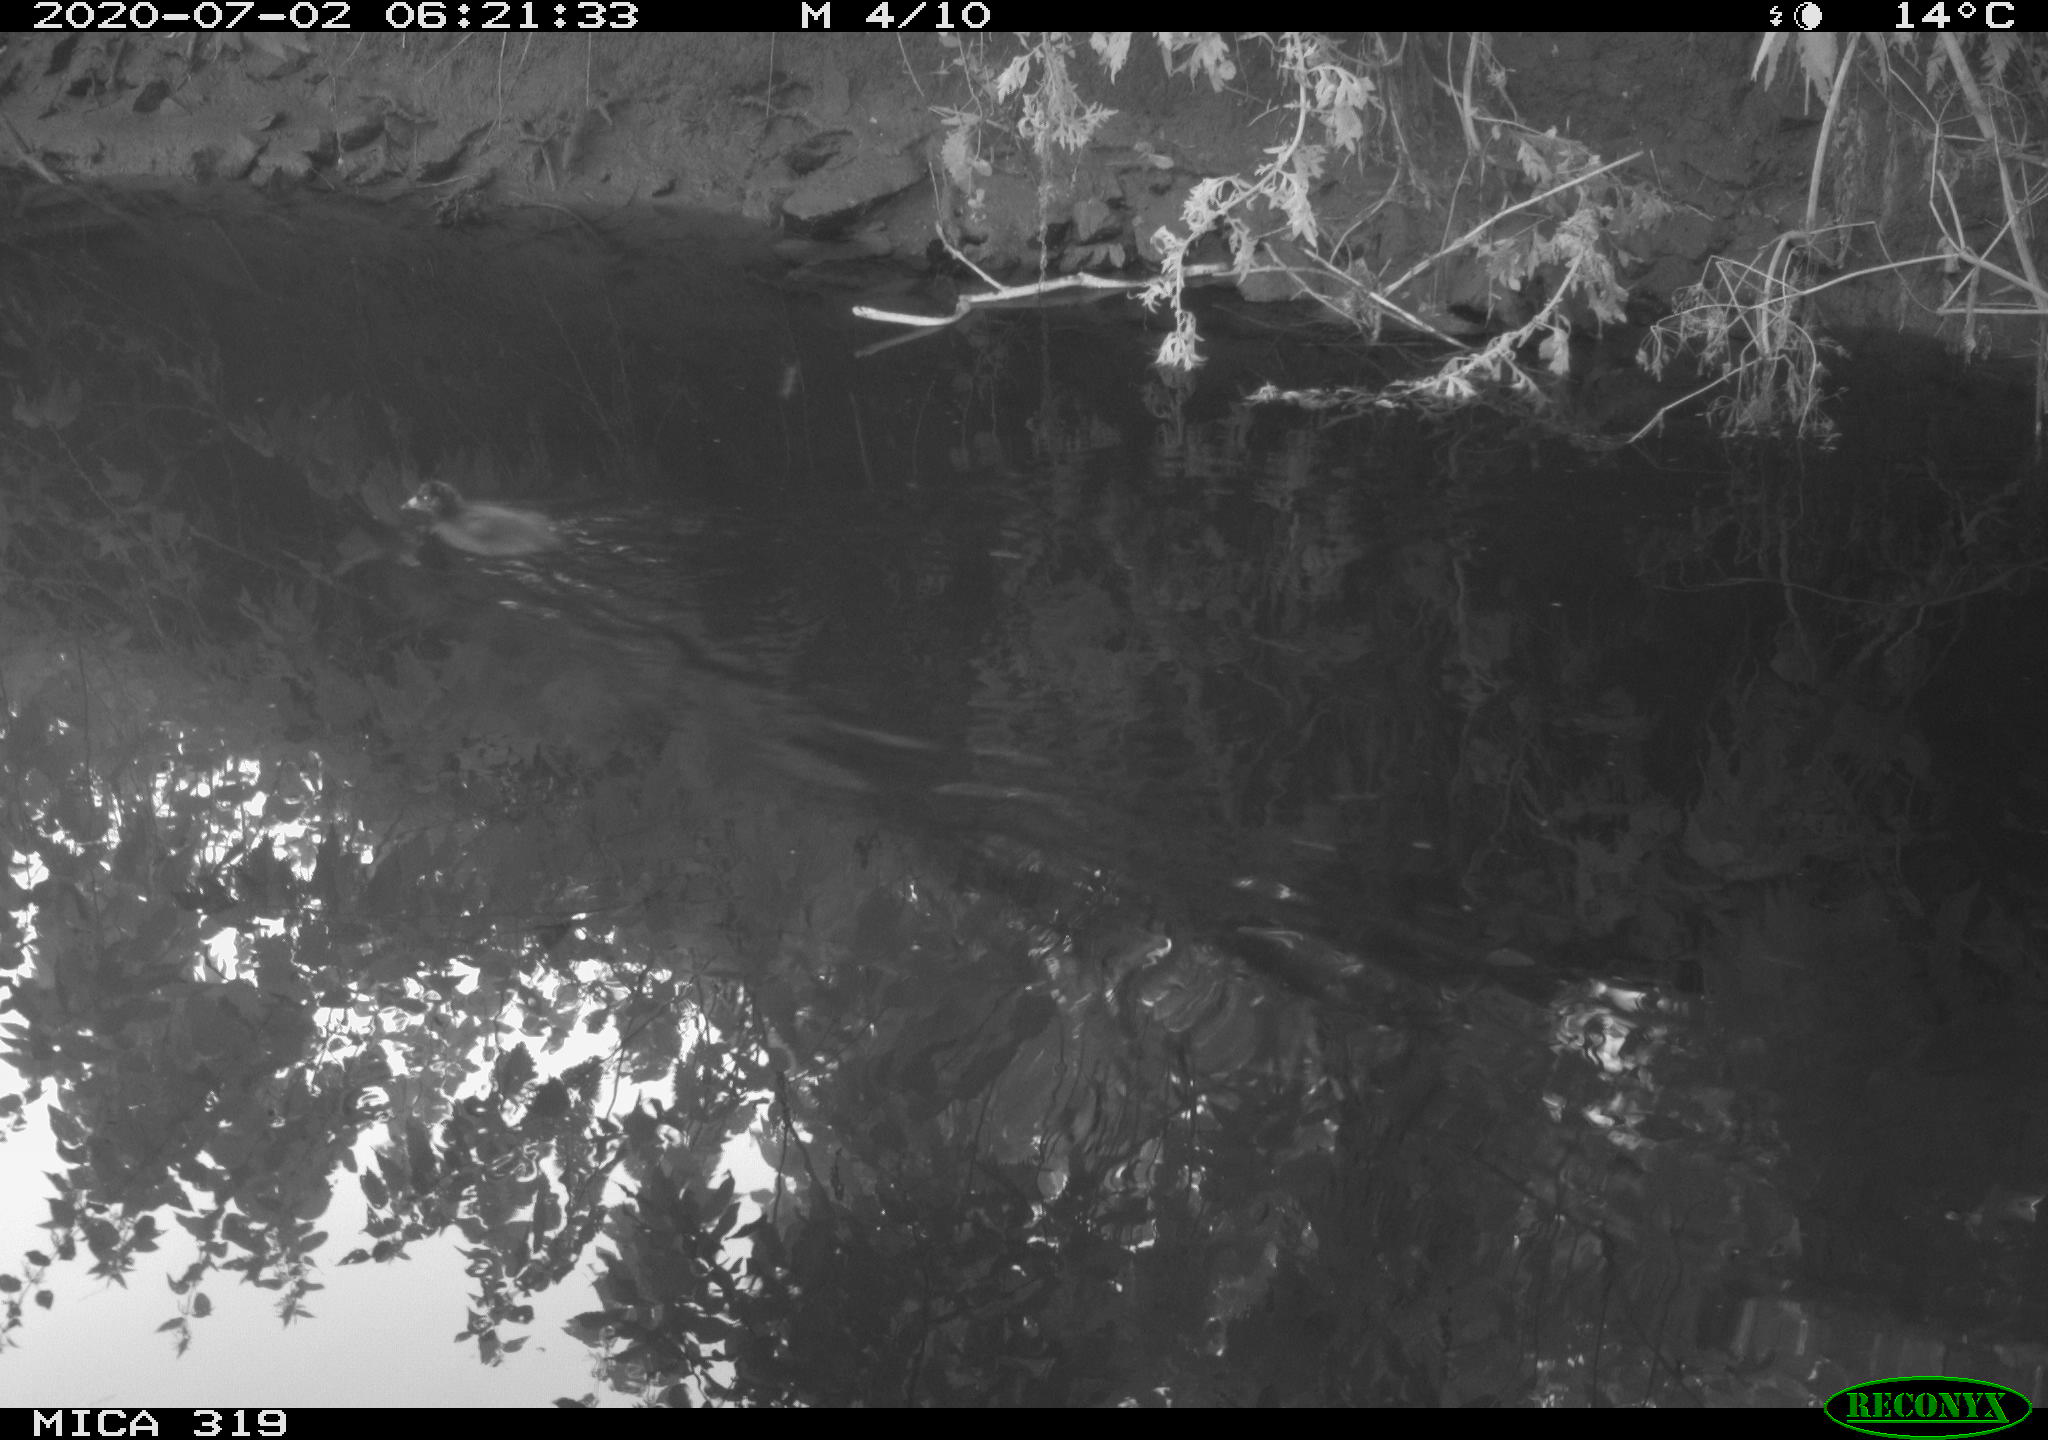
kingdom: Animalia
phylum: Chordata
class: Aves
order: Gruiformes
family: Rallidae
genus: Gallinula
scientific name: Gallinula chloropus
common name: Common moorhen
